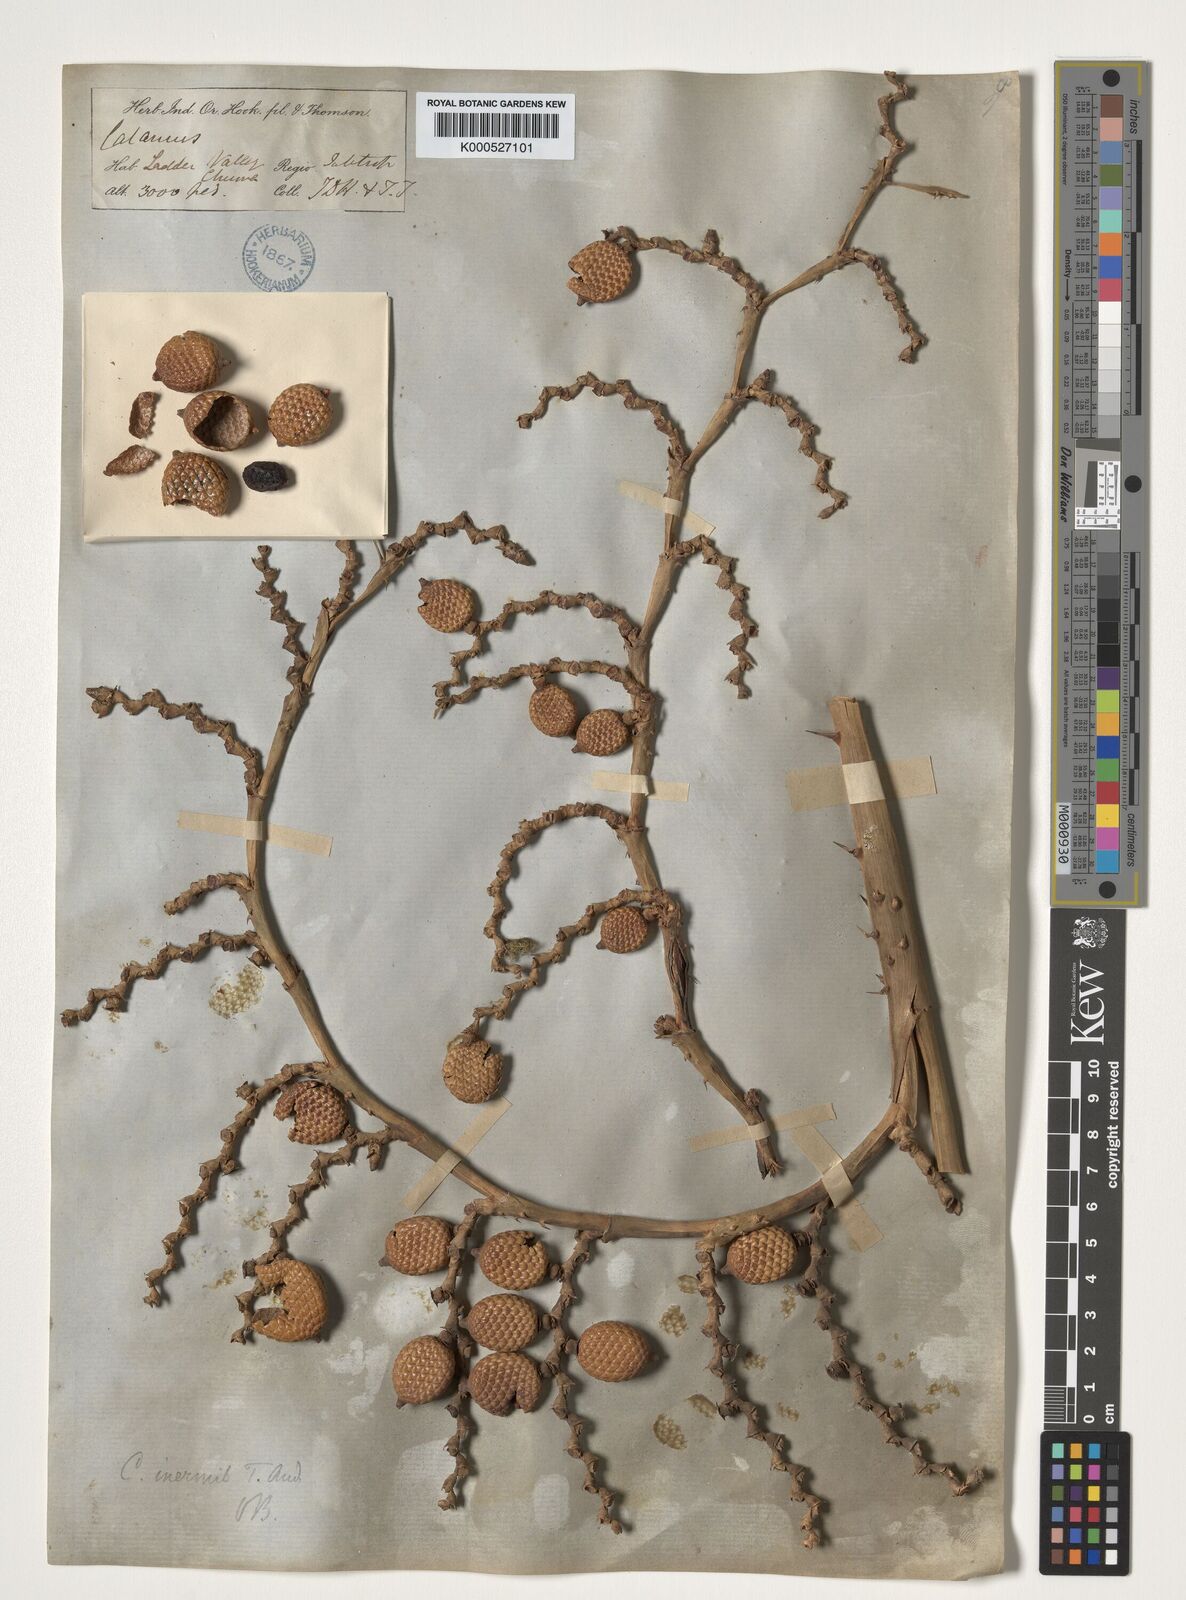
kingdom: Plantae
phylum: Tracheophyta
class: Liliopsida
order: Arecales
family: Arecaceae
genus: Calamus
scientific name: Calamus latifolius
